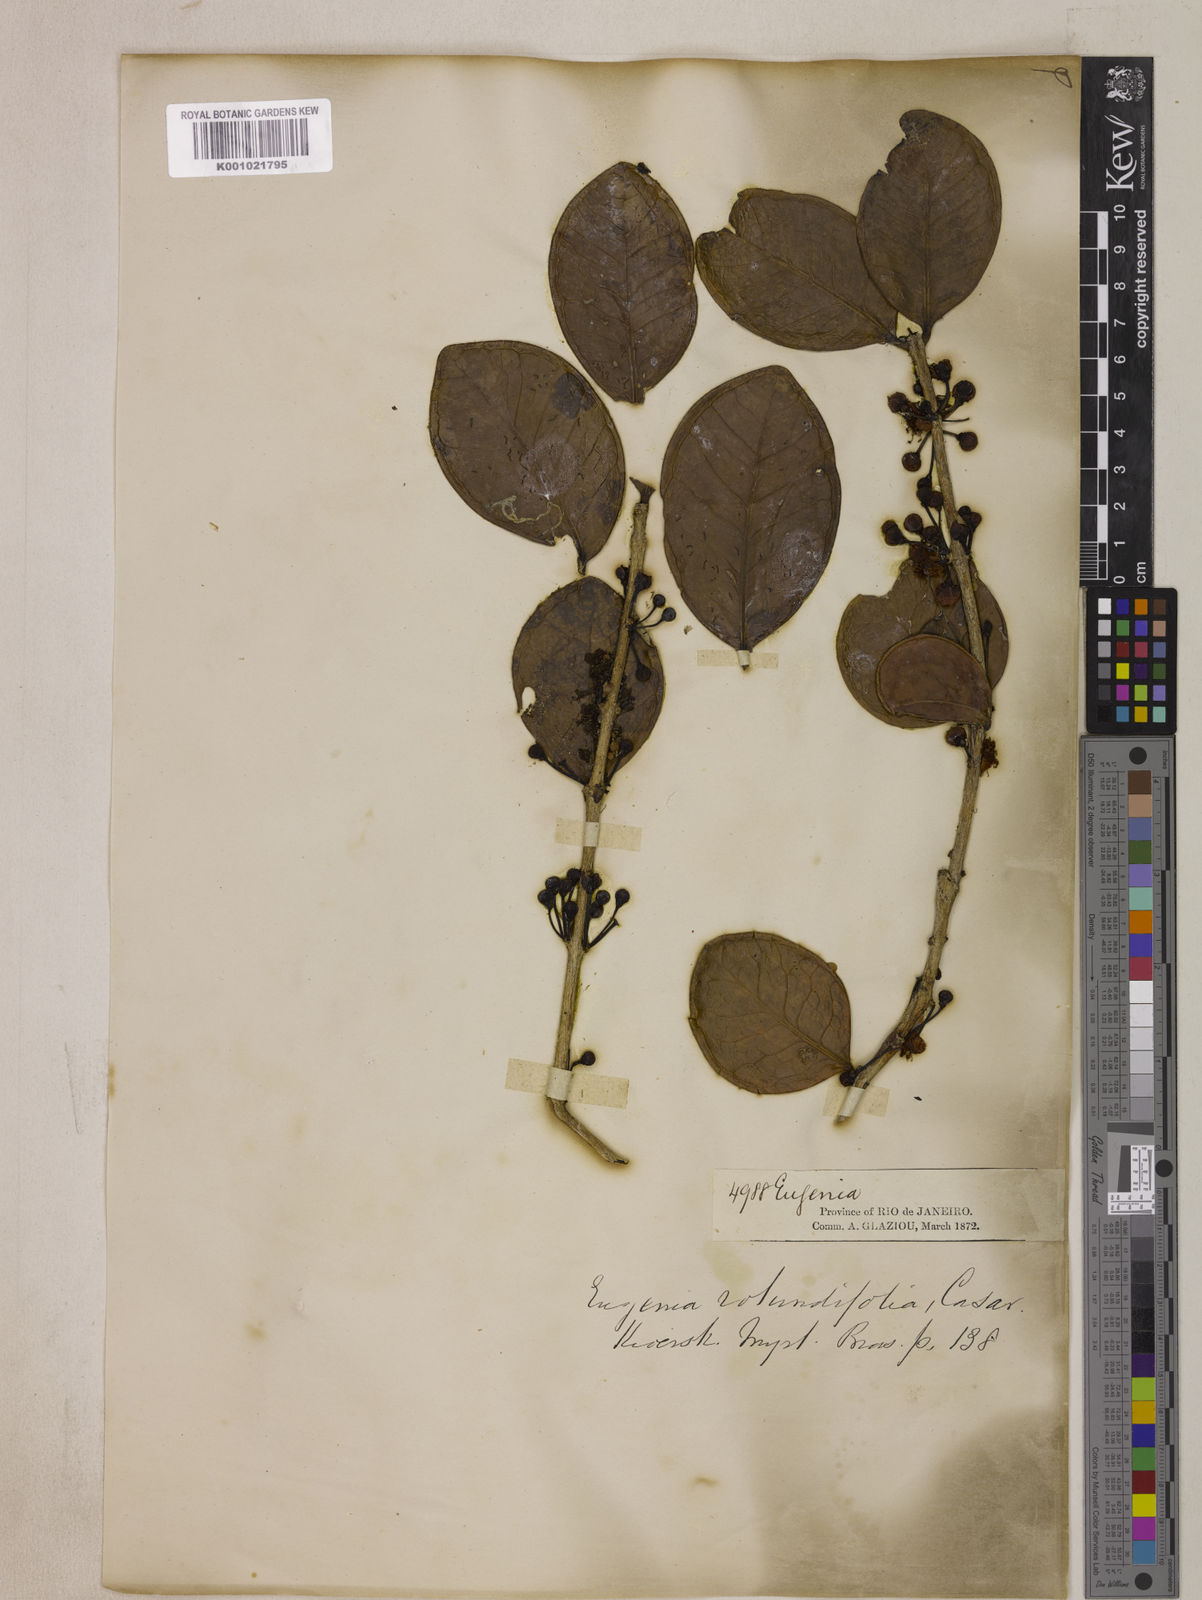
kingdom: Plantae
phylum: Tracheophyta
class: Magnoliopsida
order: Myrtales
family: Myrtaceae
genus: Eugenia
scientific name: Eugenia casarettoana
